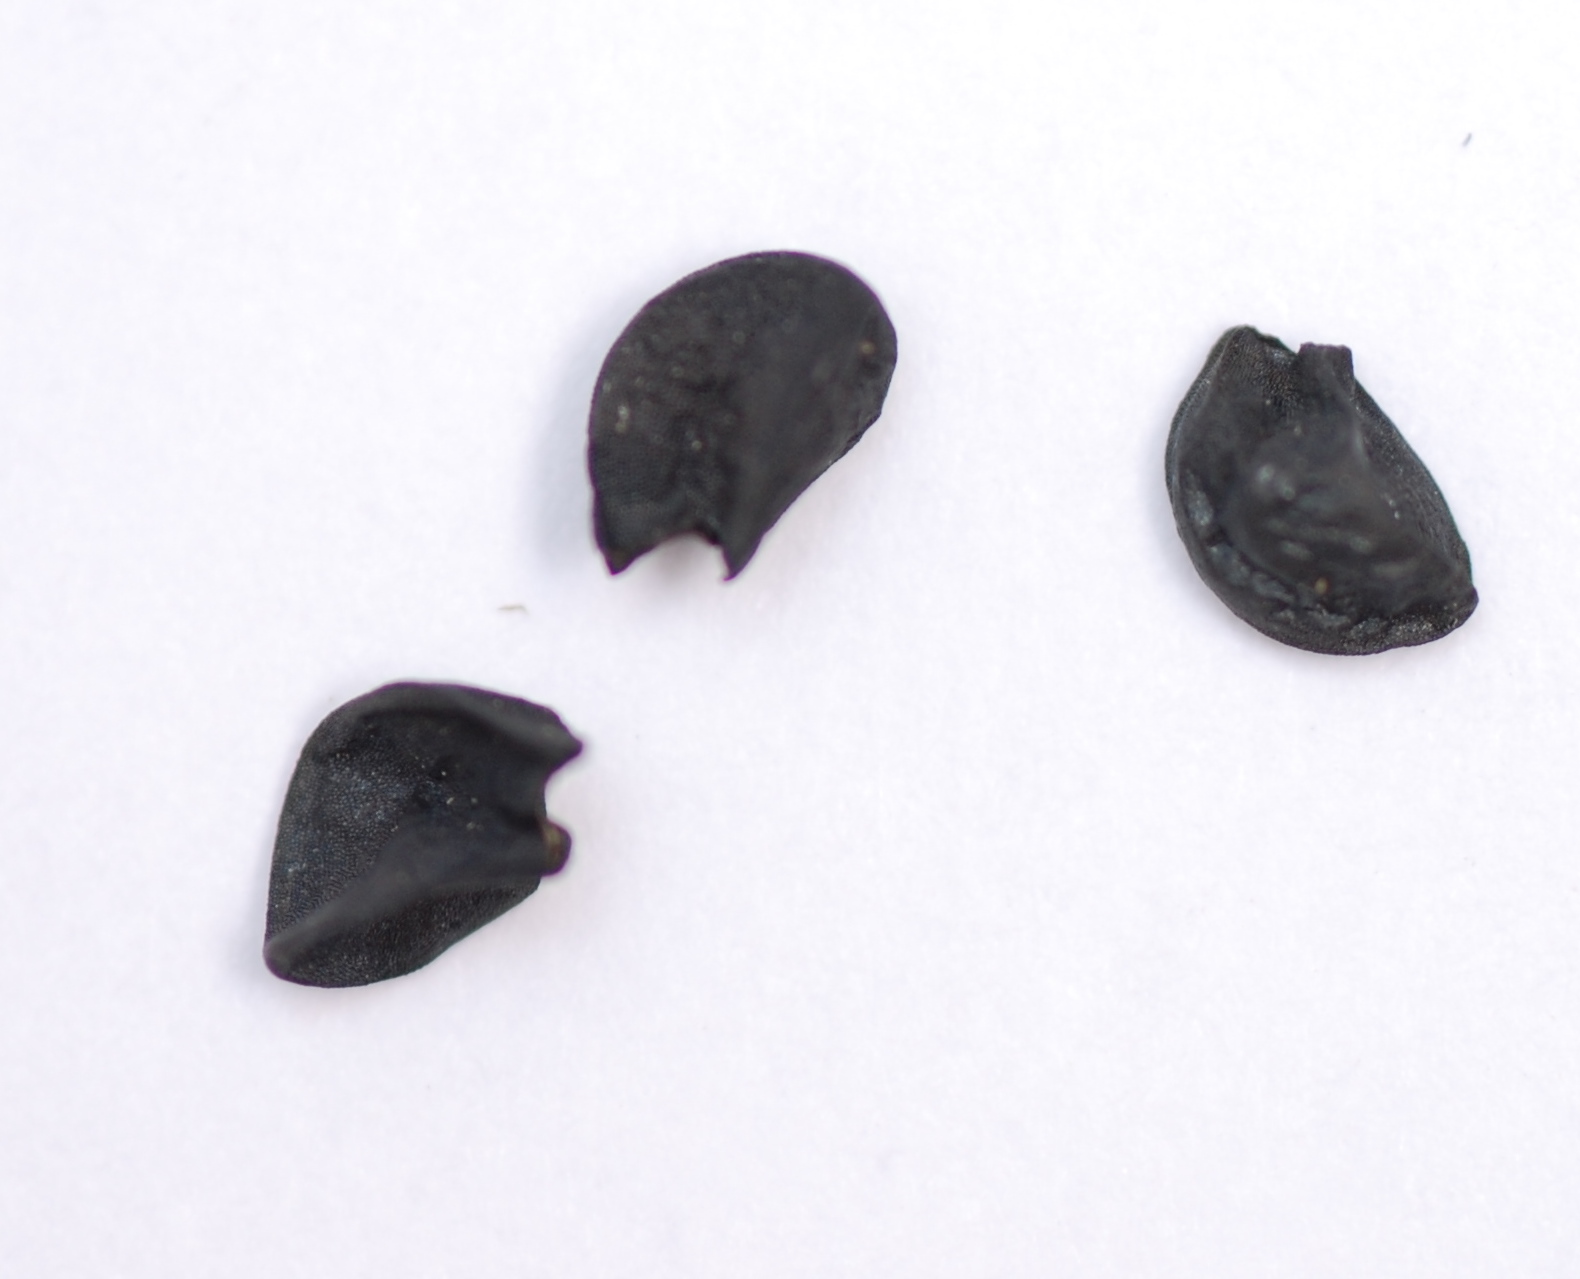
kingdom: Plantae
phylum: Tracheophyta
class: Liliopsida
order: Asparagales
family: Amaryllidaceae
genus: Allium
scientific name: Allium cepa
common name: Onion
